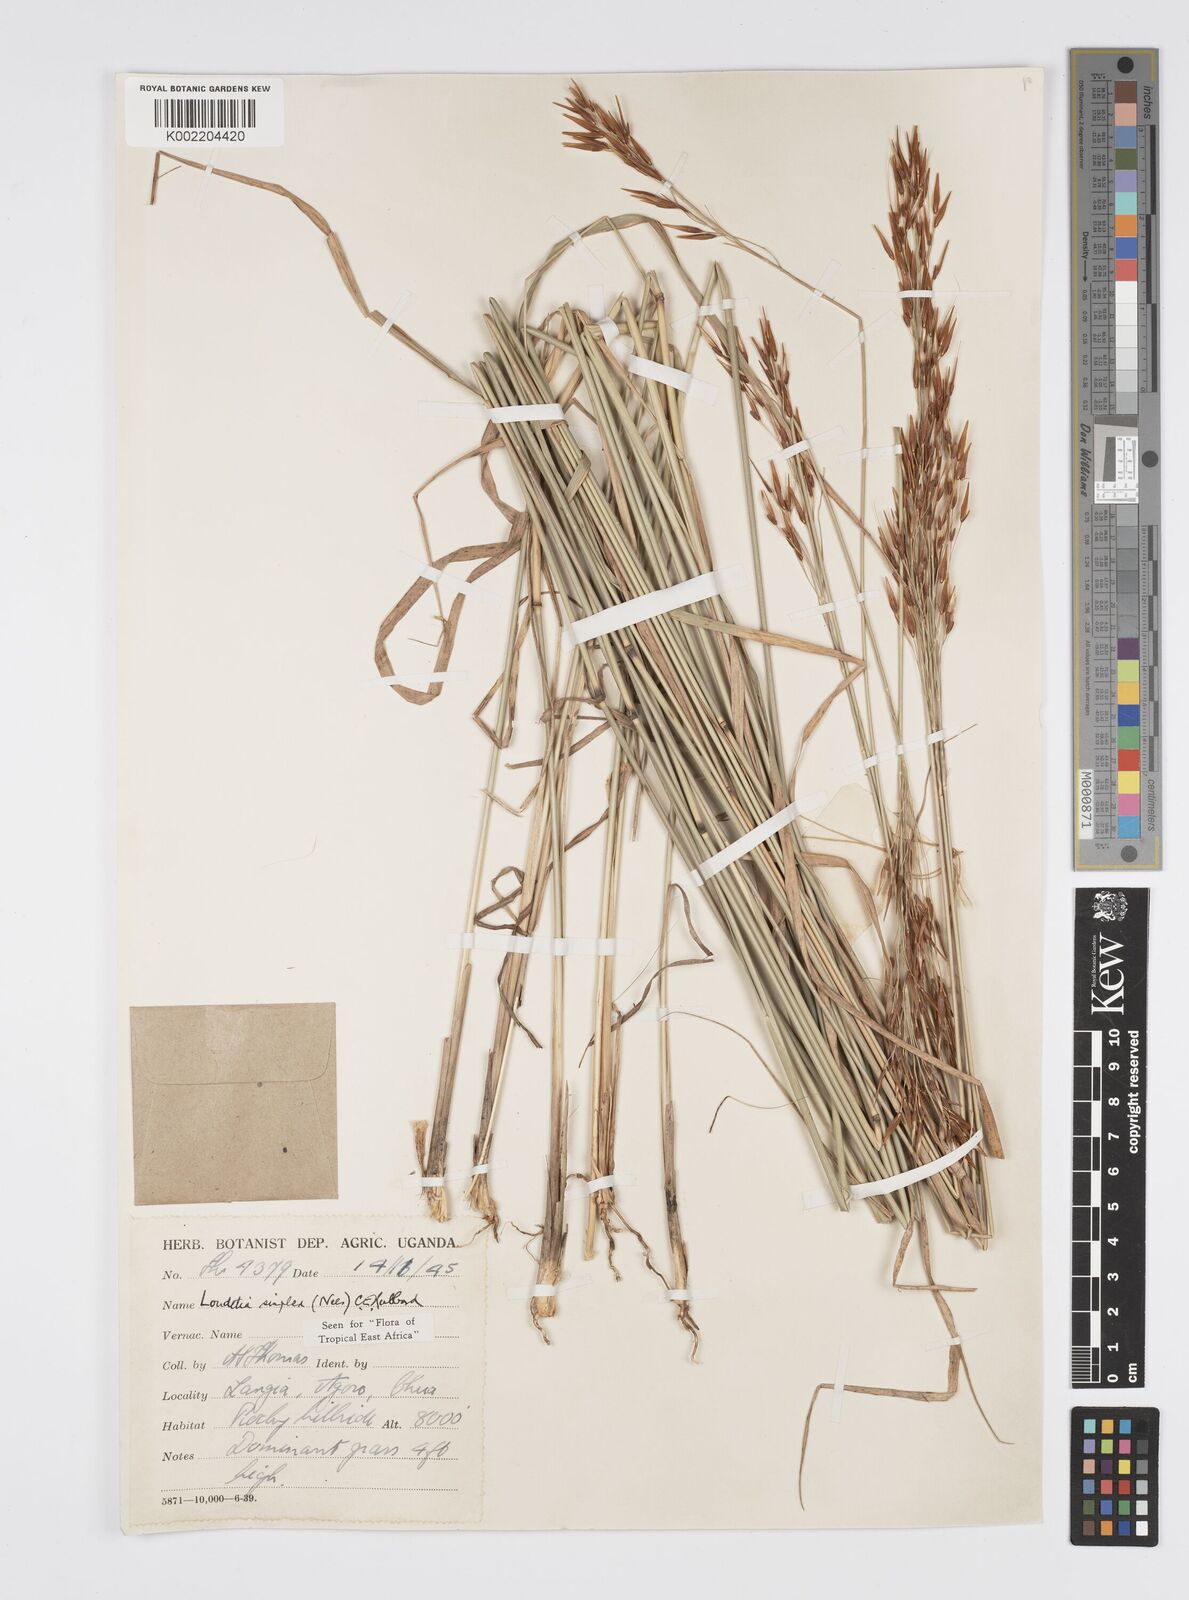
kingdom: Plantae
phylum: Tracheophyta
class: Liliopsida
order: Poales
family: Poaceae
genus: Loudetia
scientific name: Loudetia simplex
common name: Common russet grass
